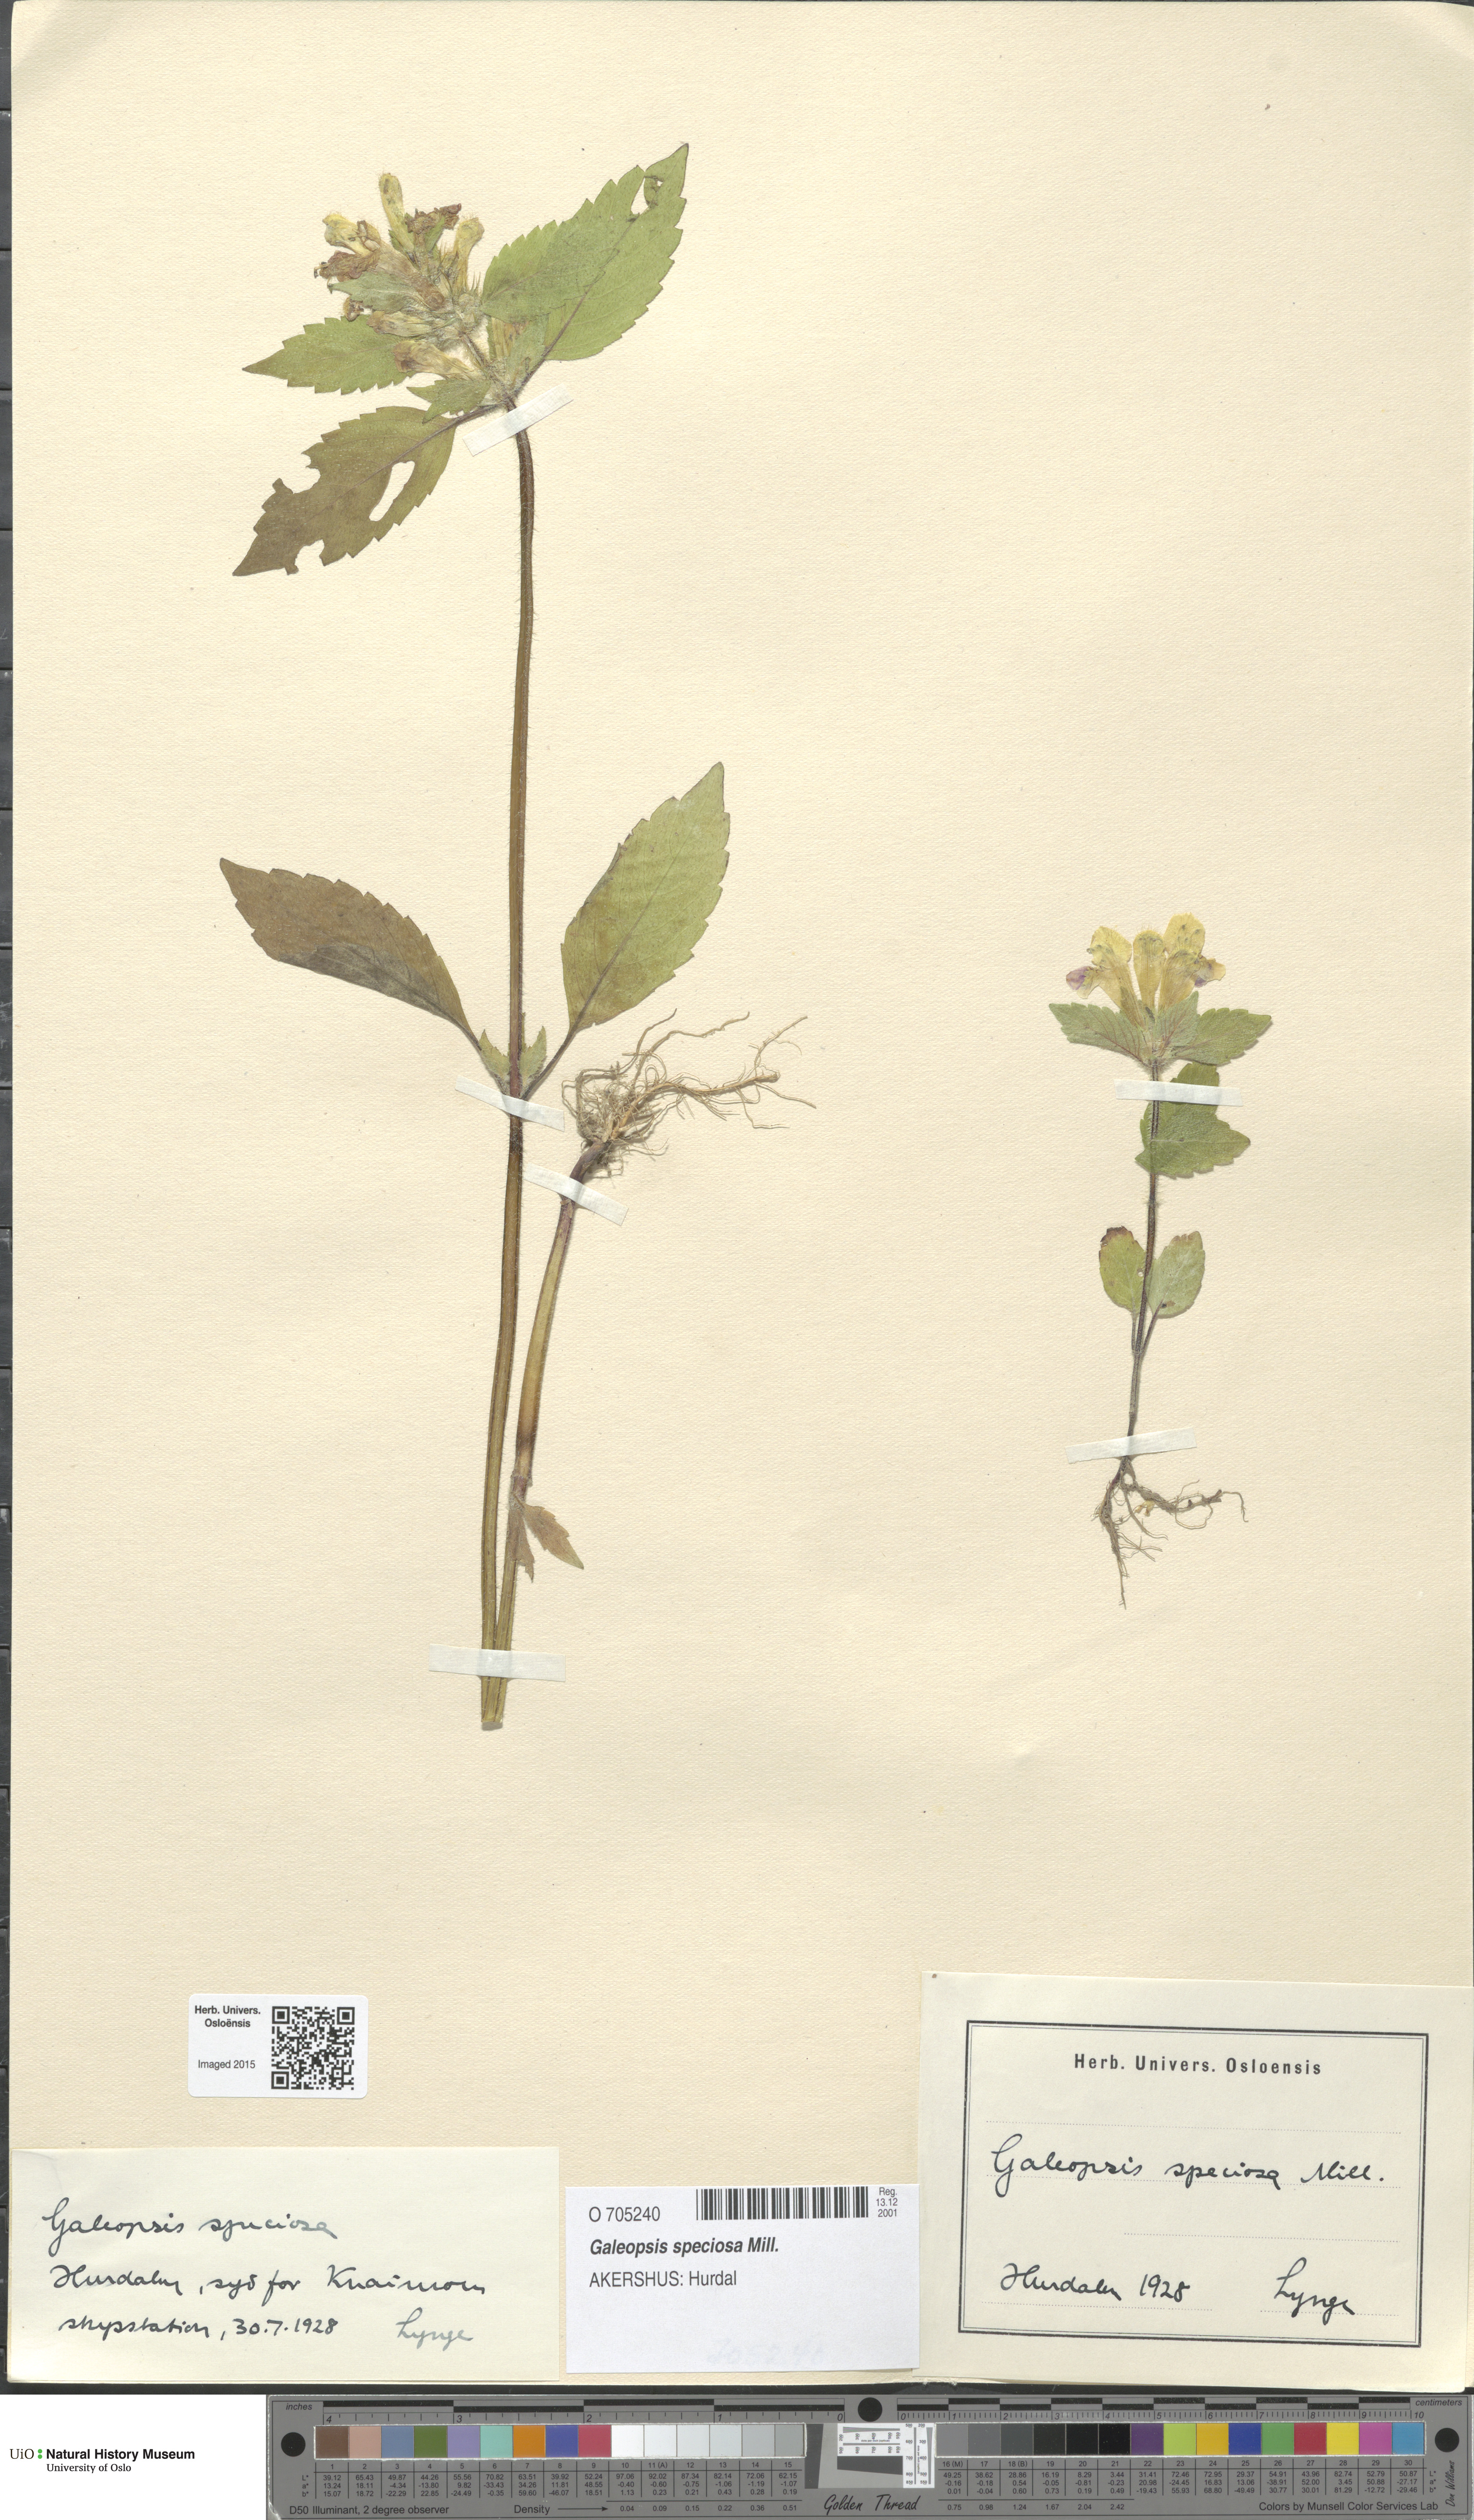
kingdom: Plantae
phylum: Tracheophyta
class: Magnoliopsida
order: Lamiales
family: Lamiaceae
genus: Galeopsis
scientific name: Galeopsis speciosa
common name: Large-flowered hemp-nettle
